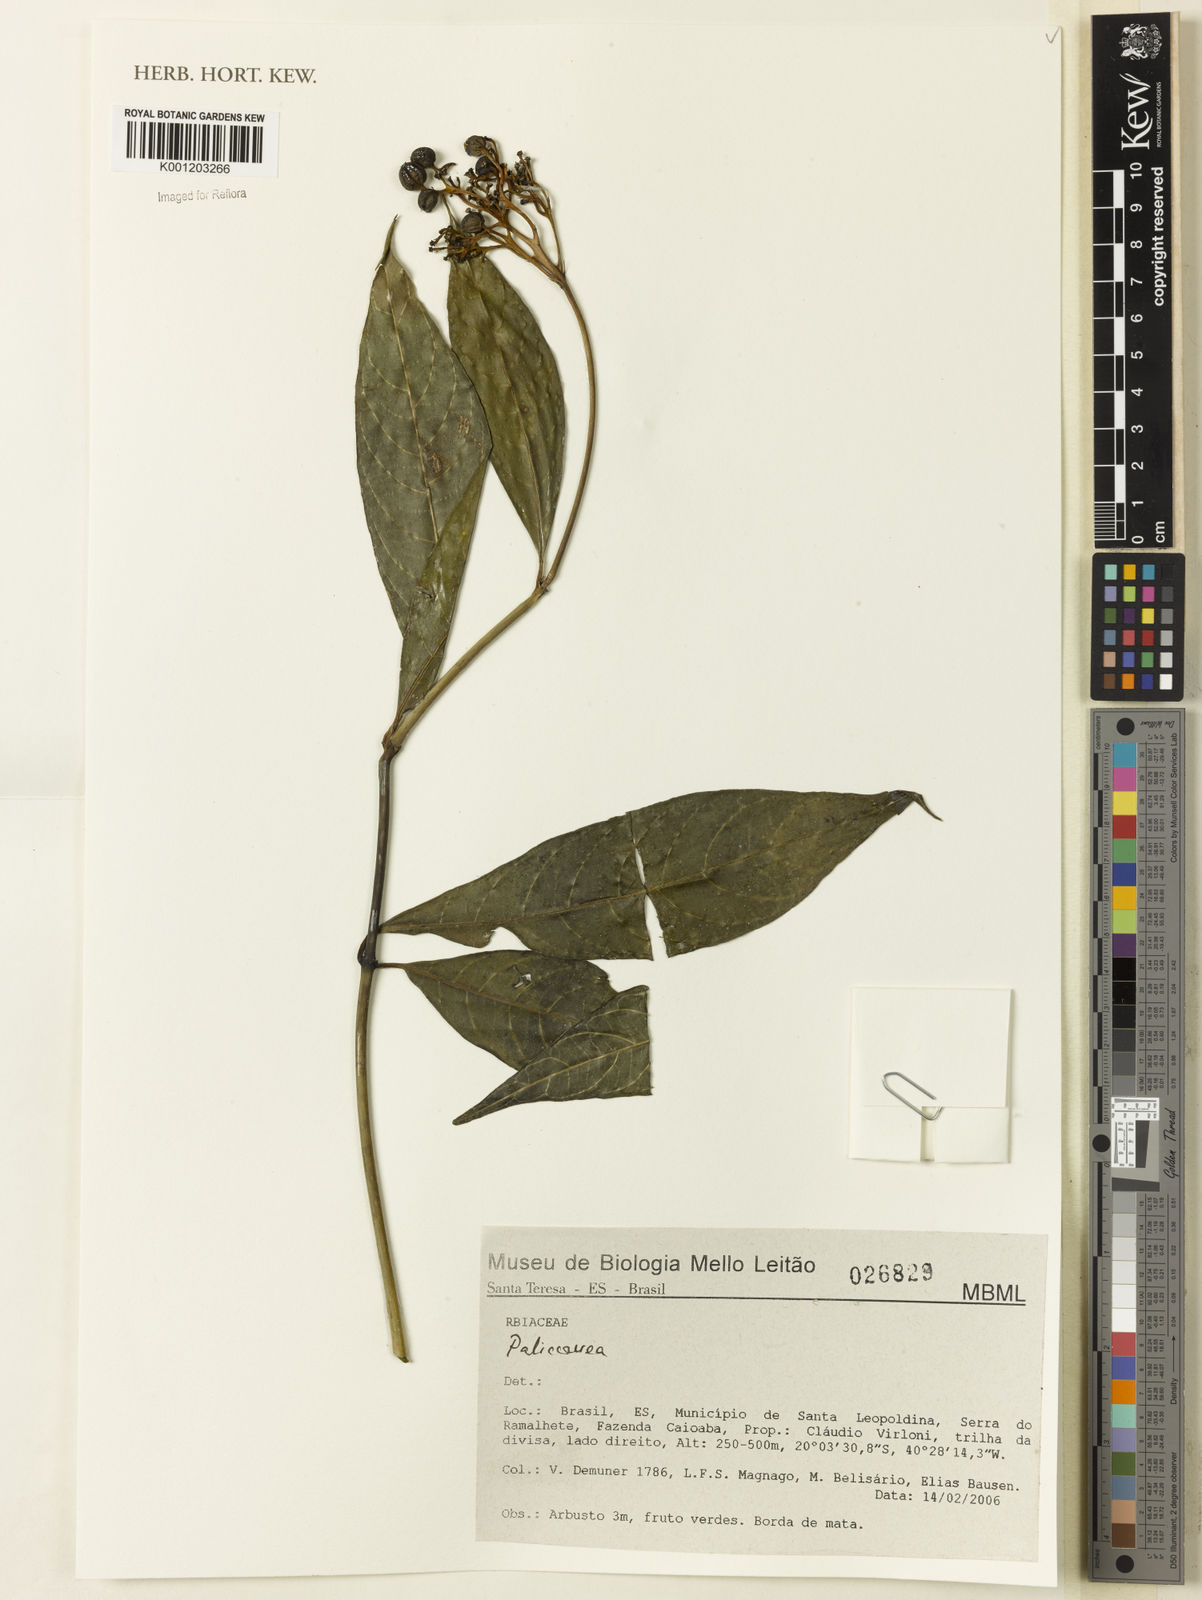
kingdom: Plantae
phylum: Tracheophyta
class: Magnoliopsida
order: Gentianales
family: Rubiaceae
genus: Palicourea
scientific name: Palicourea
